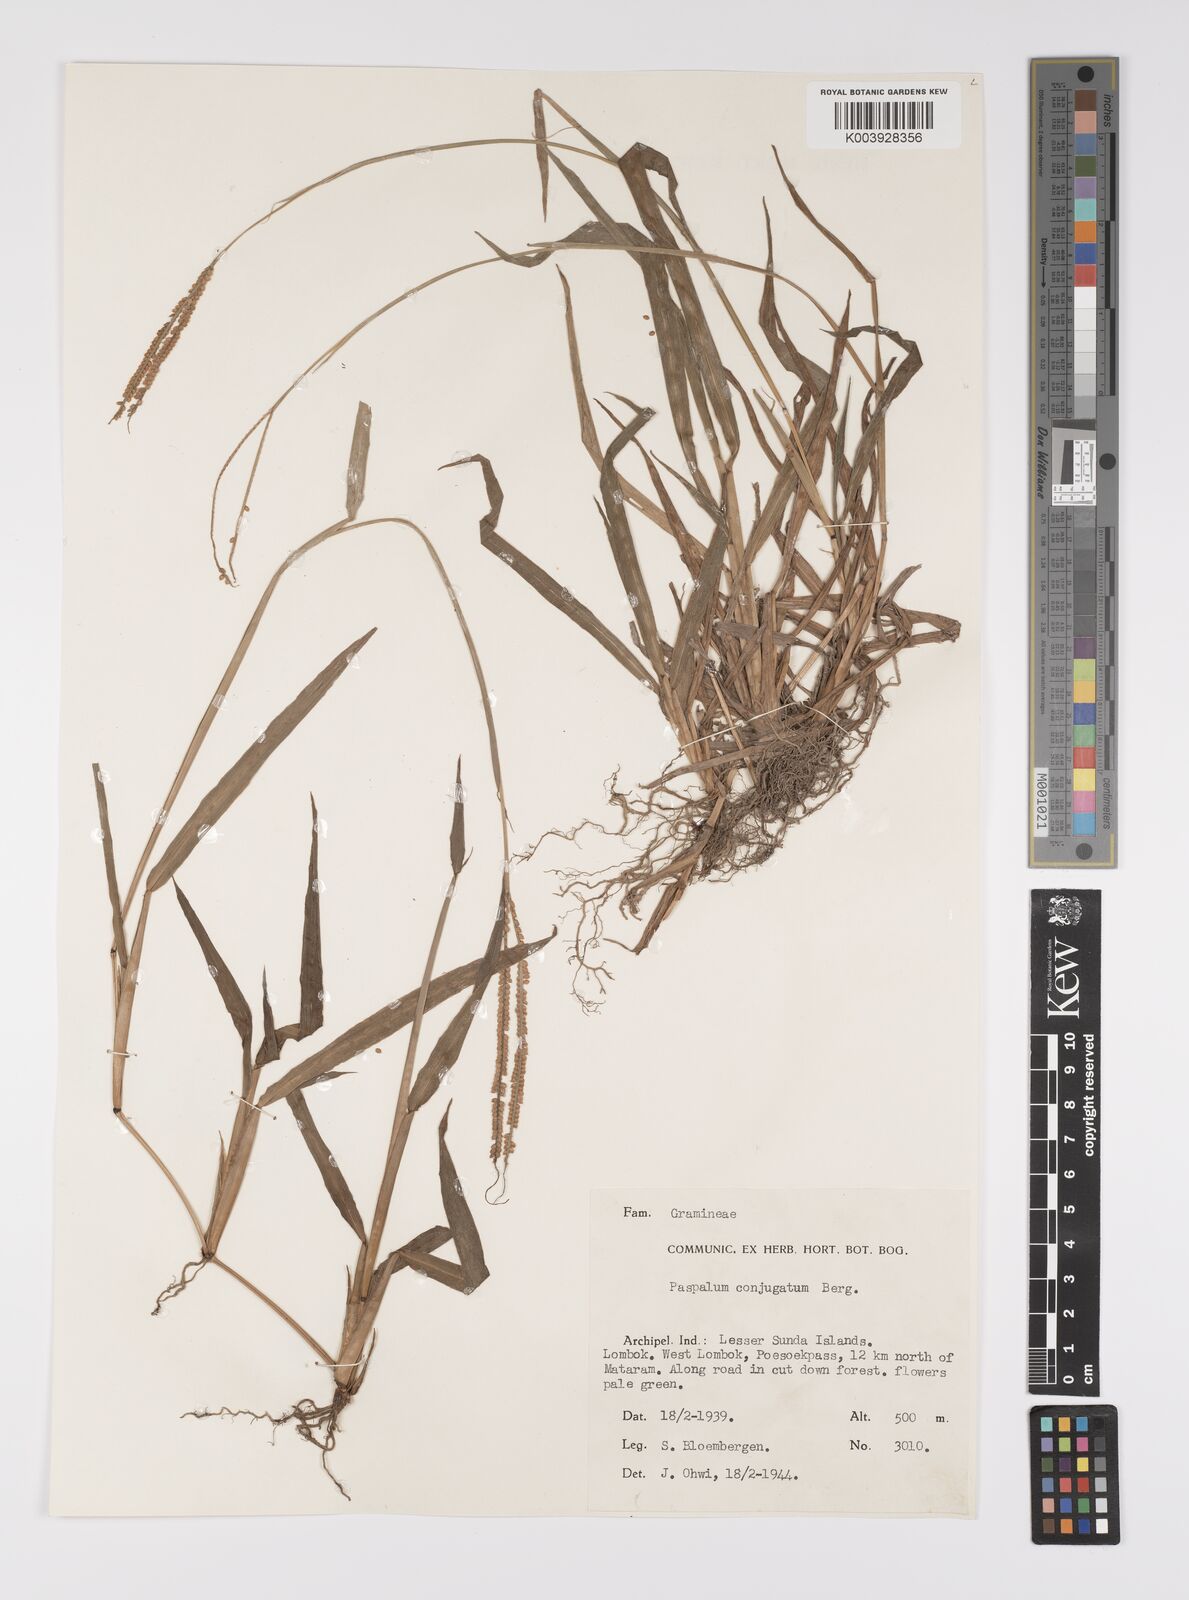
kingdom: Plantae
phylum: Tracheophyta
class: Liliopsida
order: Poales
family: Poaceae
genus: Paspalum
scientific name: Paspalum conjugatum
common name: Hilograss
